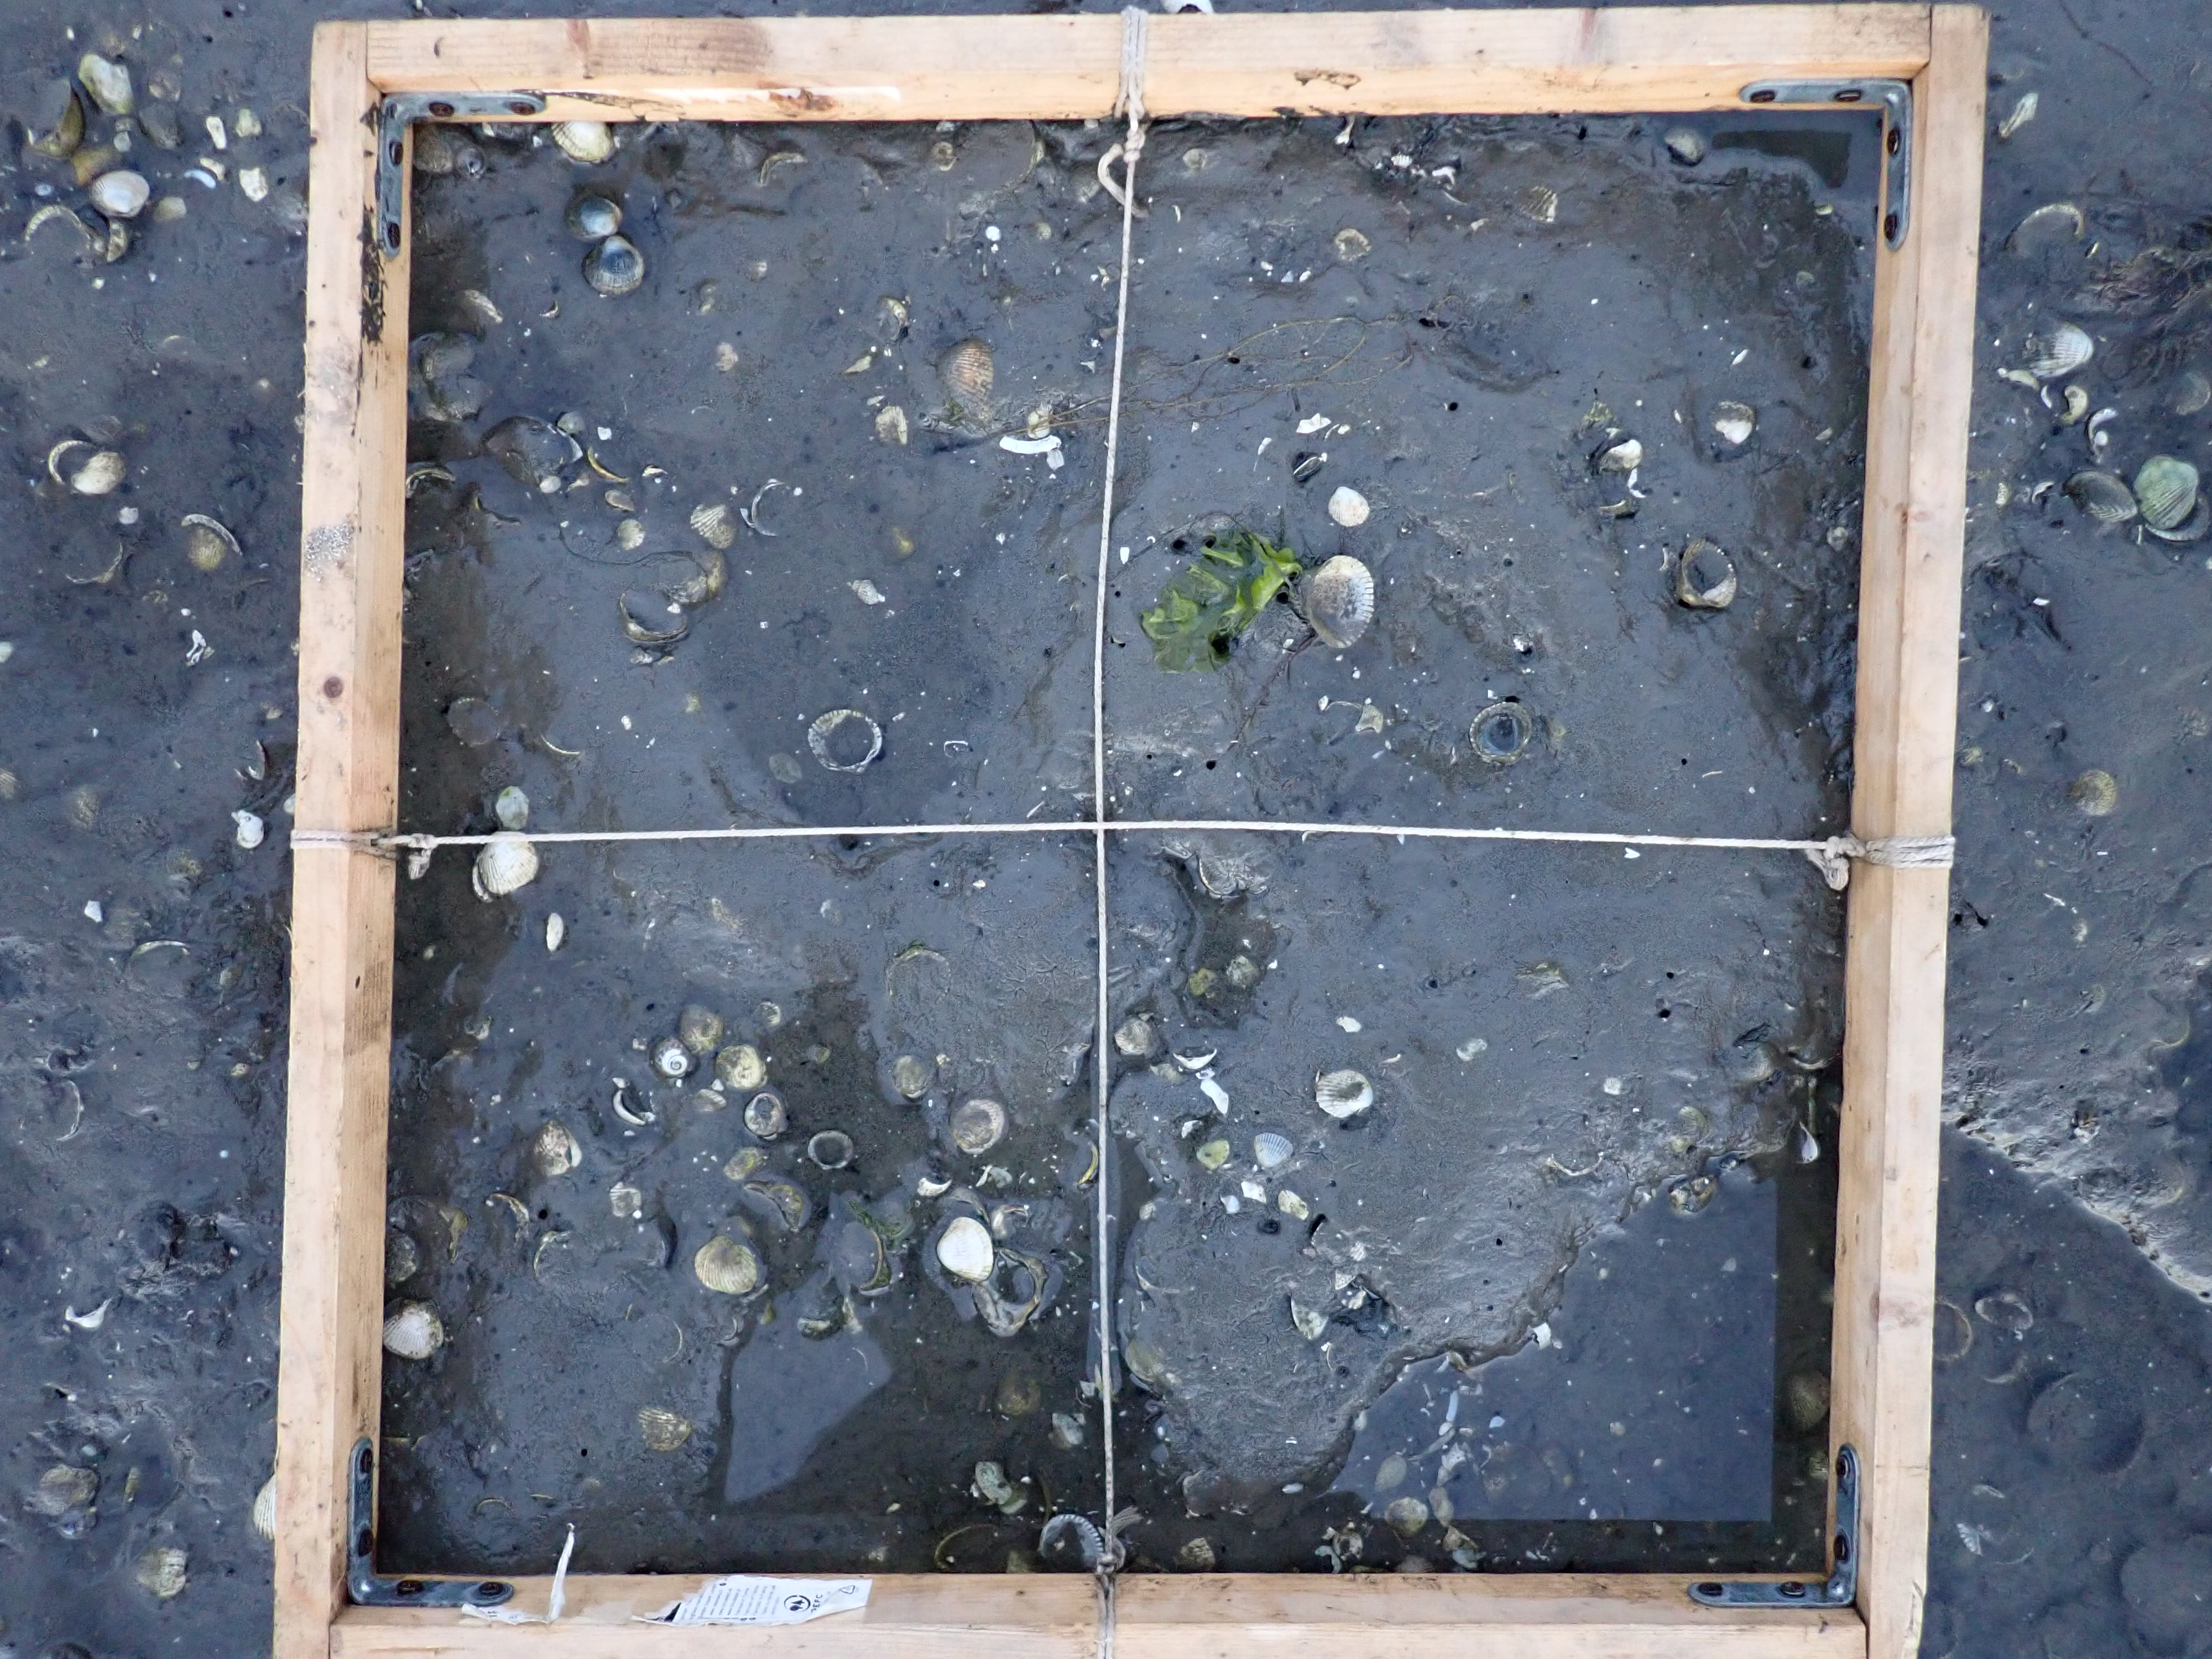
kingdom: Plantae
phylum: Chlorophyta
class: Ulvophyceae
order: Ulvales
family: Ulvaceae
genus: Ulva
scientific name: Ulva
